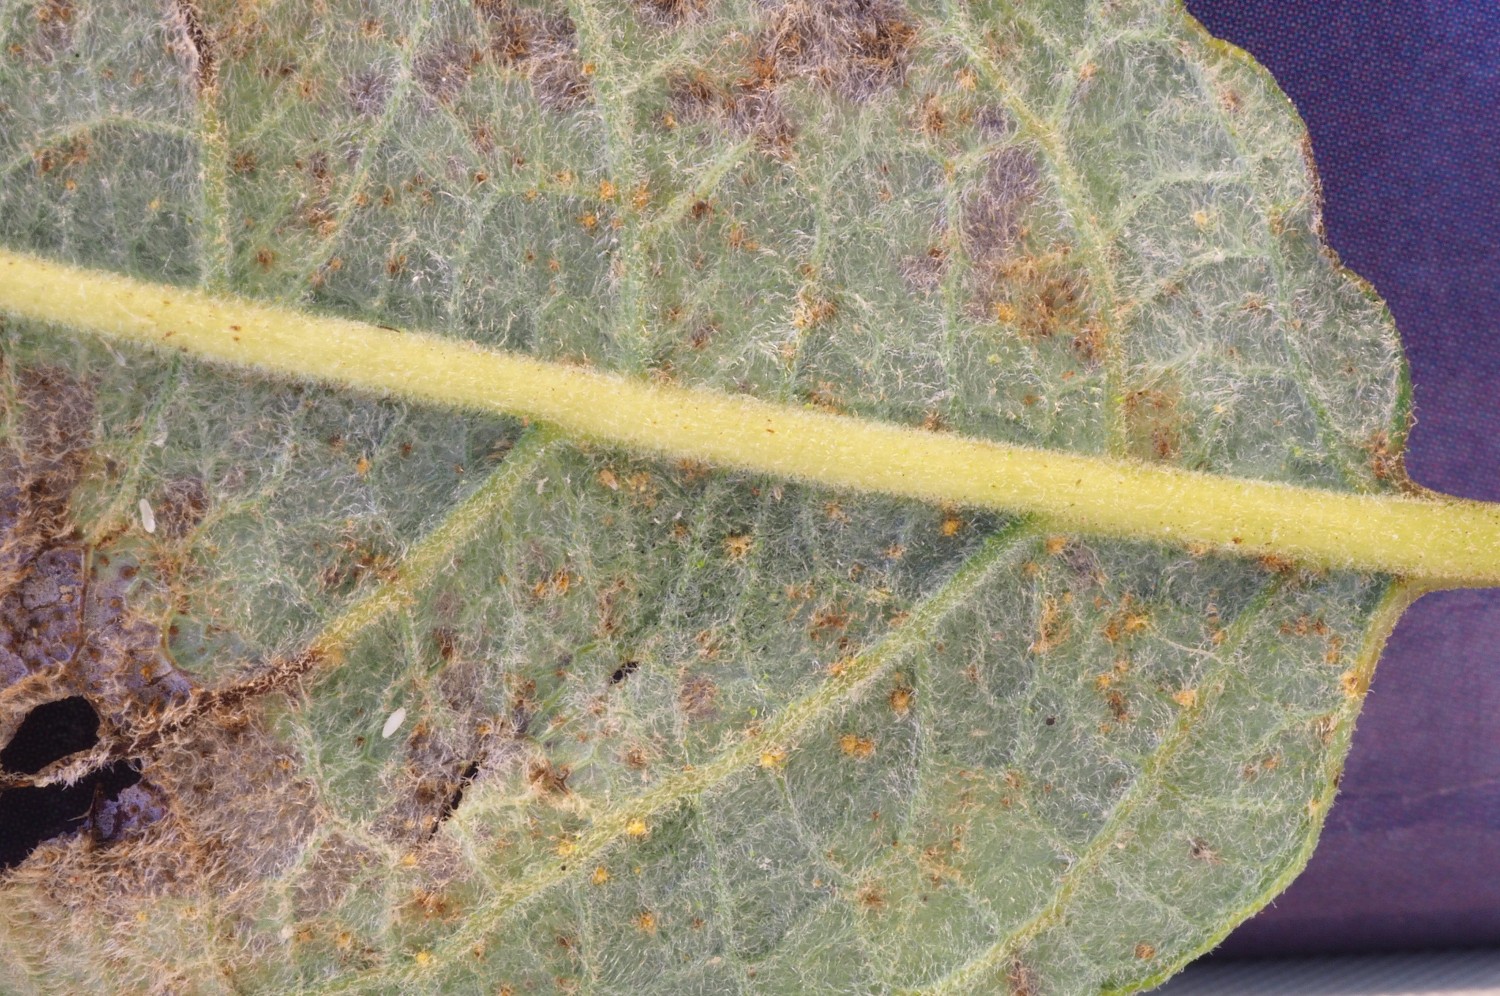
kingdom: Fungi
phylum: Basidiomycota
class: Pucciniomycetes
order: Pucciniales
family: Melampsoraceae
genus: Melampsora
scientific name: Melampsora epitea
